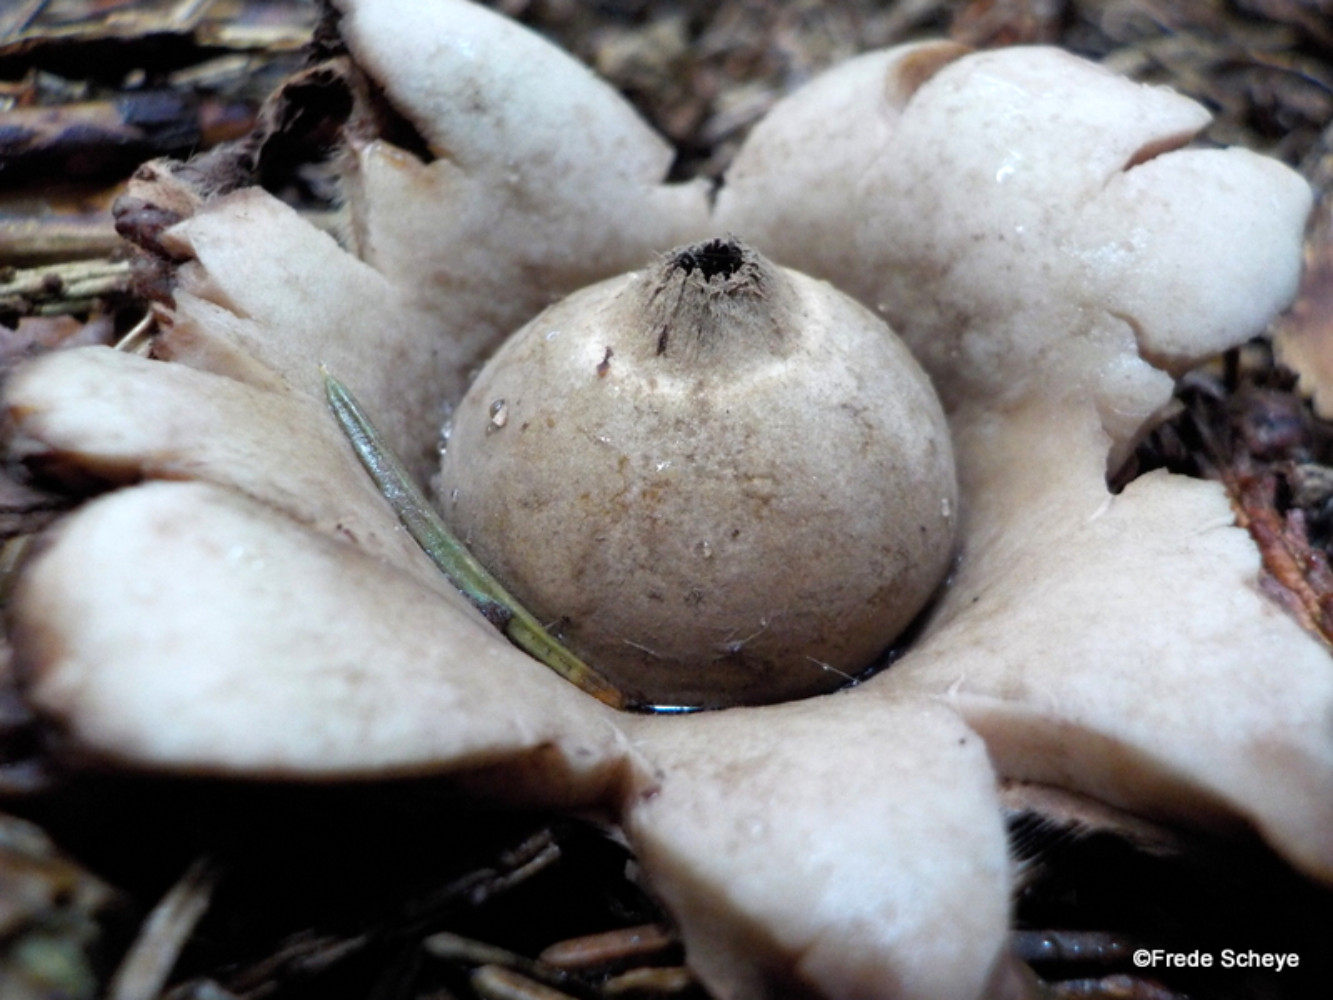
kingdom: Fungi
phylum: Basidiomycota
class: Agaricomycetes
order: Geastrales
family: Geastraceae
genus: Geastrum
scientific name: Geastrum michelianum
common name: kødet stjernebold
